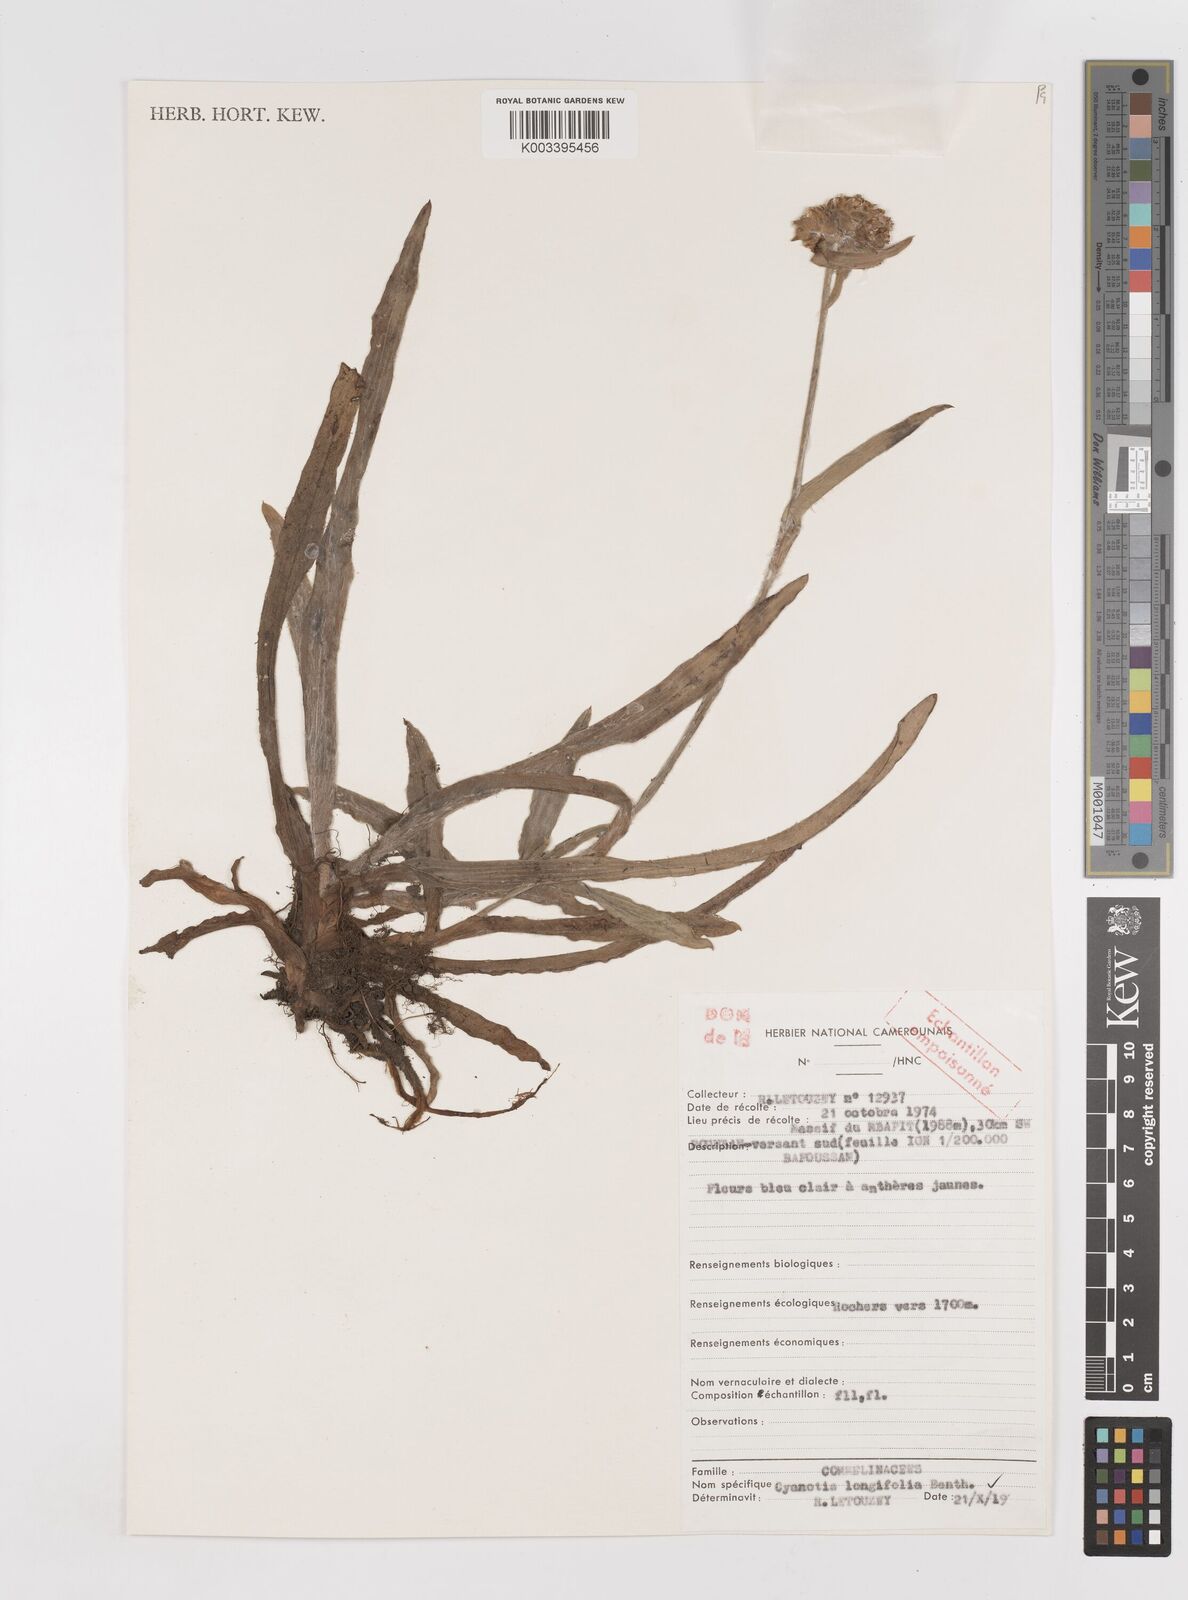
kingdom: Plantae
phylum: Tracheophyta
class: Liliopsida
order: Commelinales
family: Commelinaceae
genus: Cyanotis
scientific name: Cyanotis longifolia
